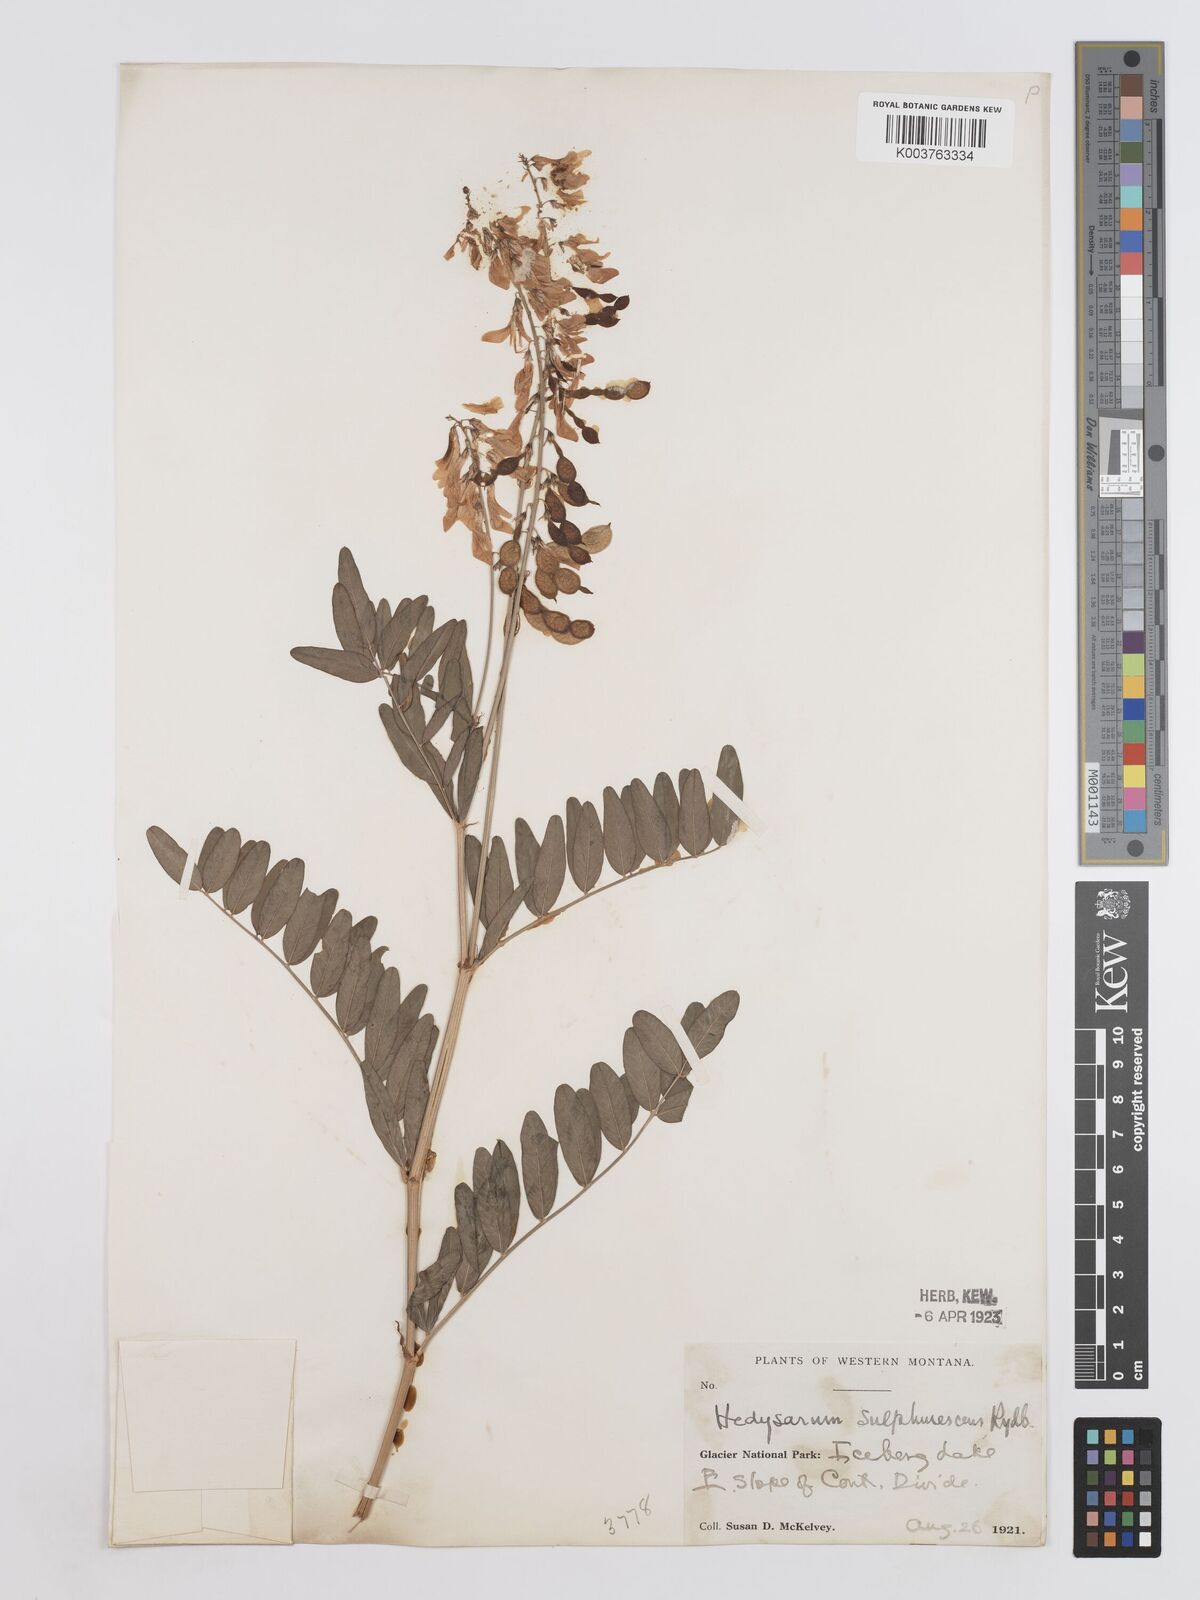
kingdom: Plantae
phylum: Tracheophyta
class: Magnoliopsida
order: Fabales
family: Fabaceae
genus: Hedysarum
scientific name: Hedysarum sulphurescens
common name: Sulphur hedysarum
